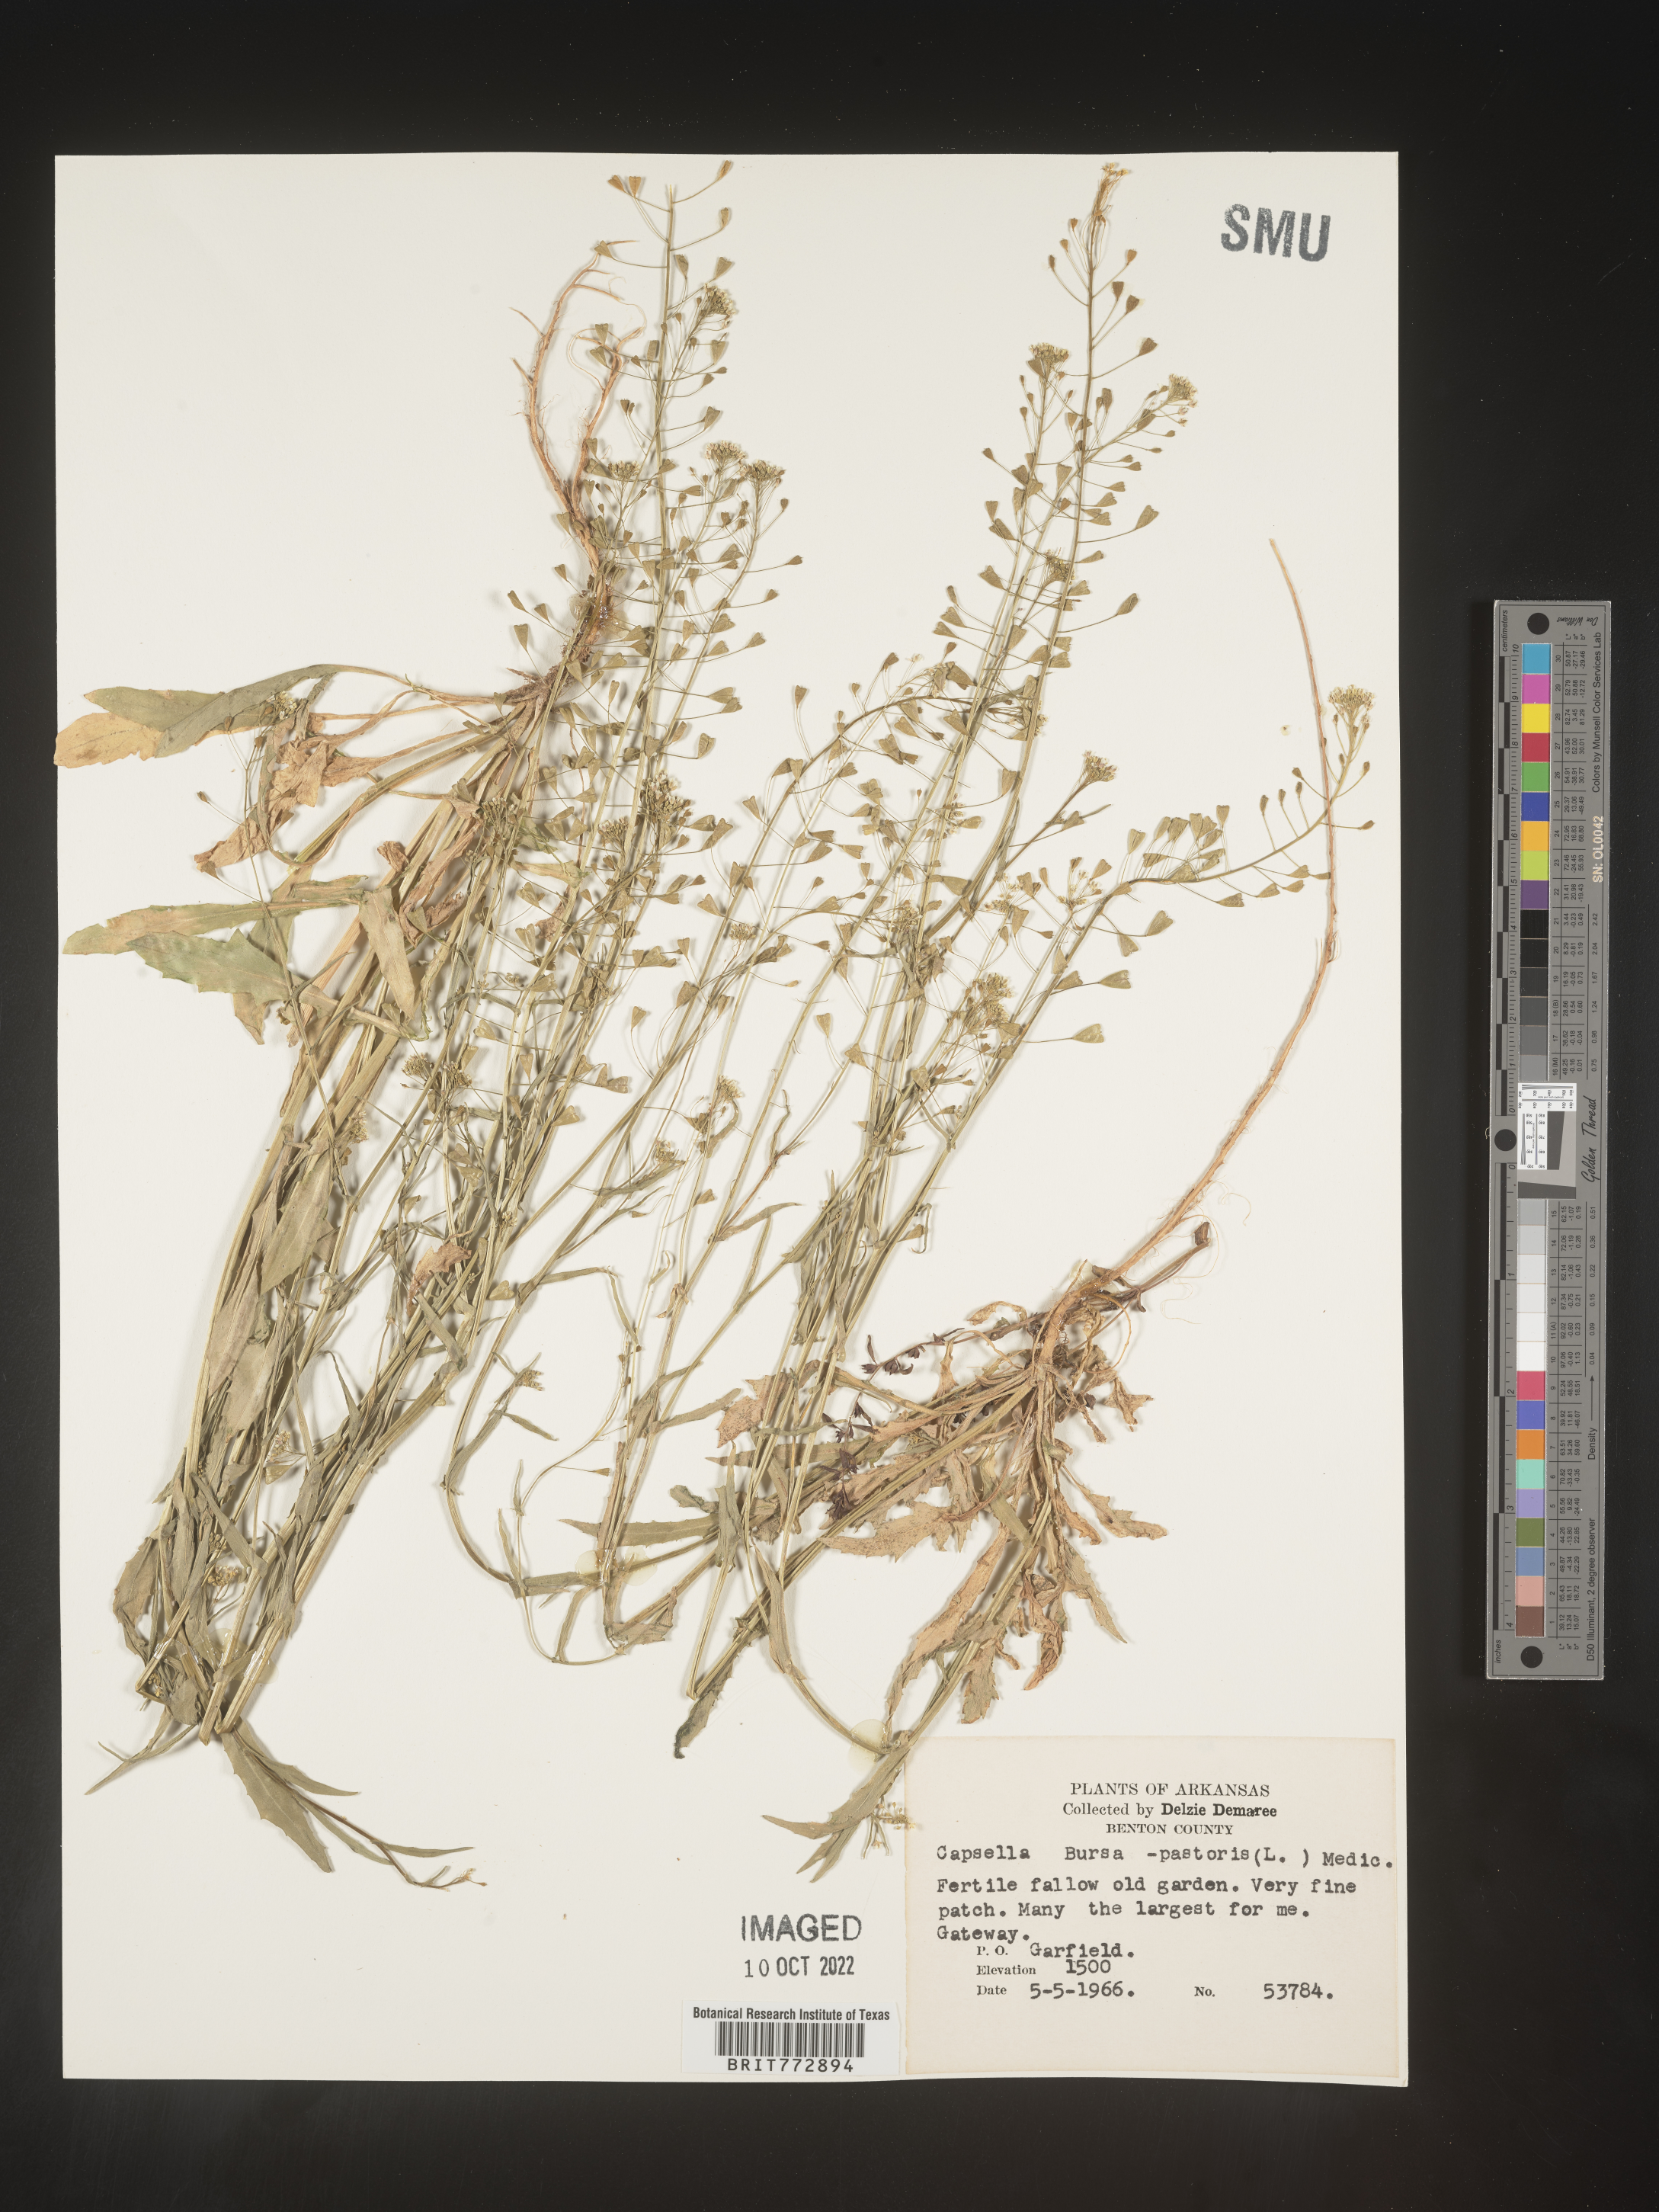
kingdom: Plantae
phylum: Tracheophyta
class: Magnoliopsida
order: Brassicales
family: Brassicaceae
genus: Capsella
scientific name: Capsella bursa-pastoris
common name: Shepherd's purse
